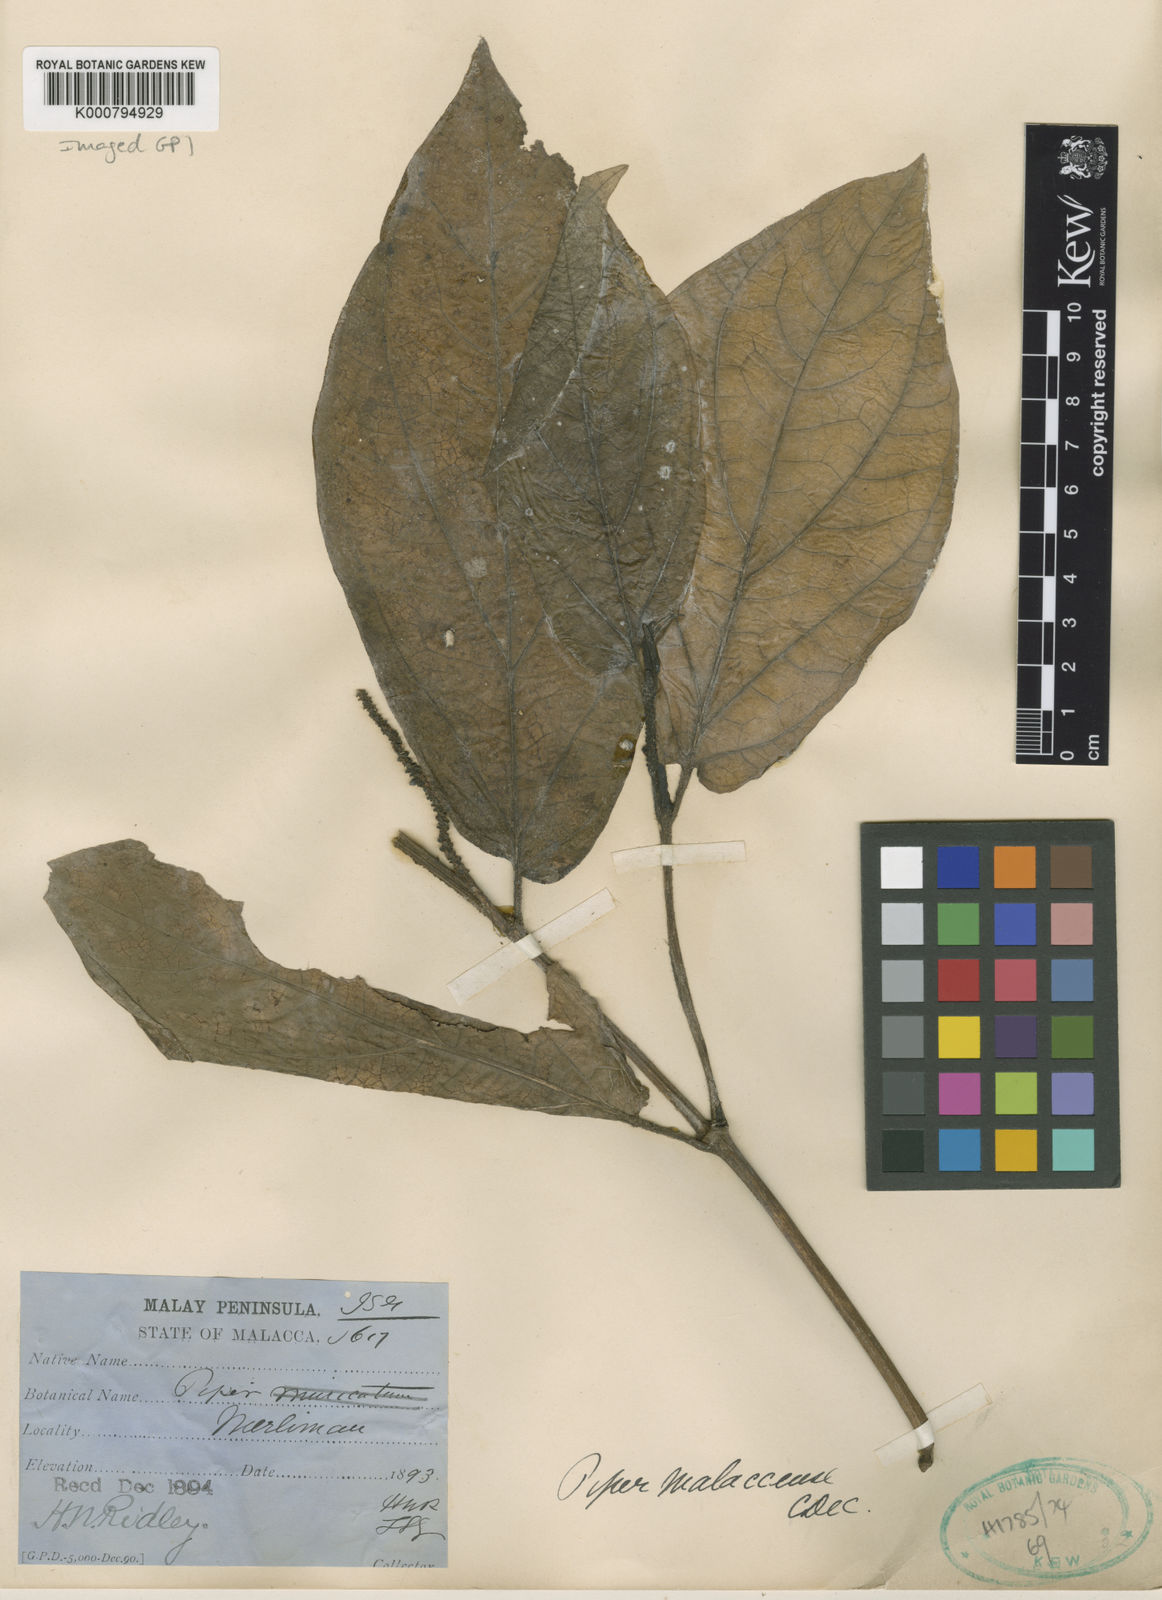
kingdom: Plantae
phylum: Tracheophyta
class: Magnoliopsida
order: Piperales
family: Piperaceae
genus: Piper
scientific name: Piper ridleyi
